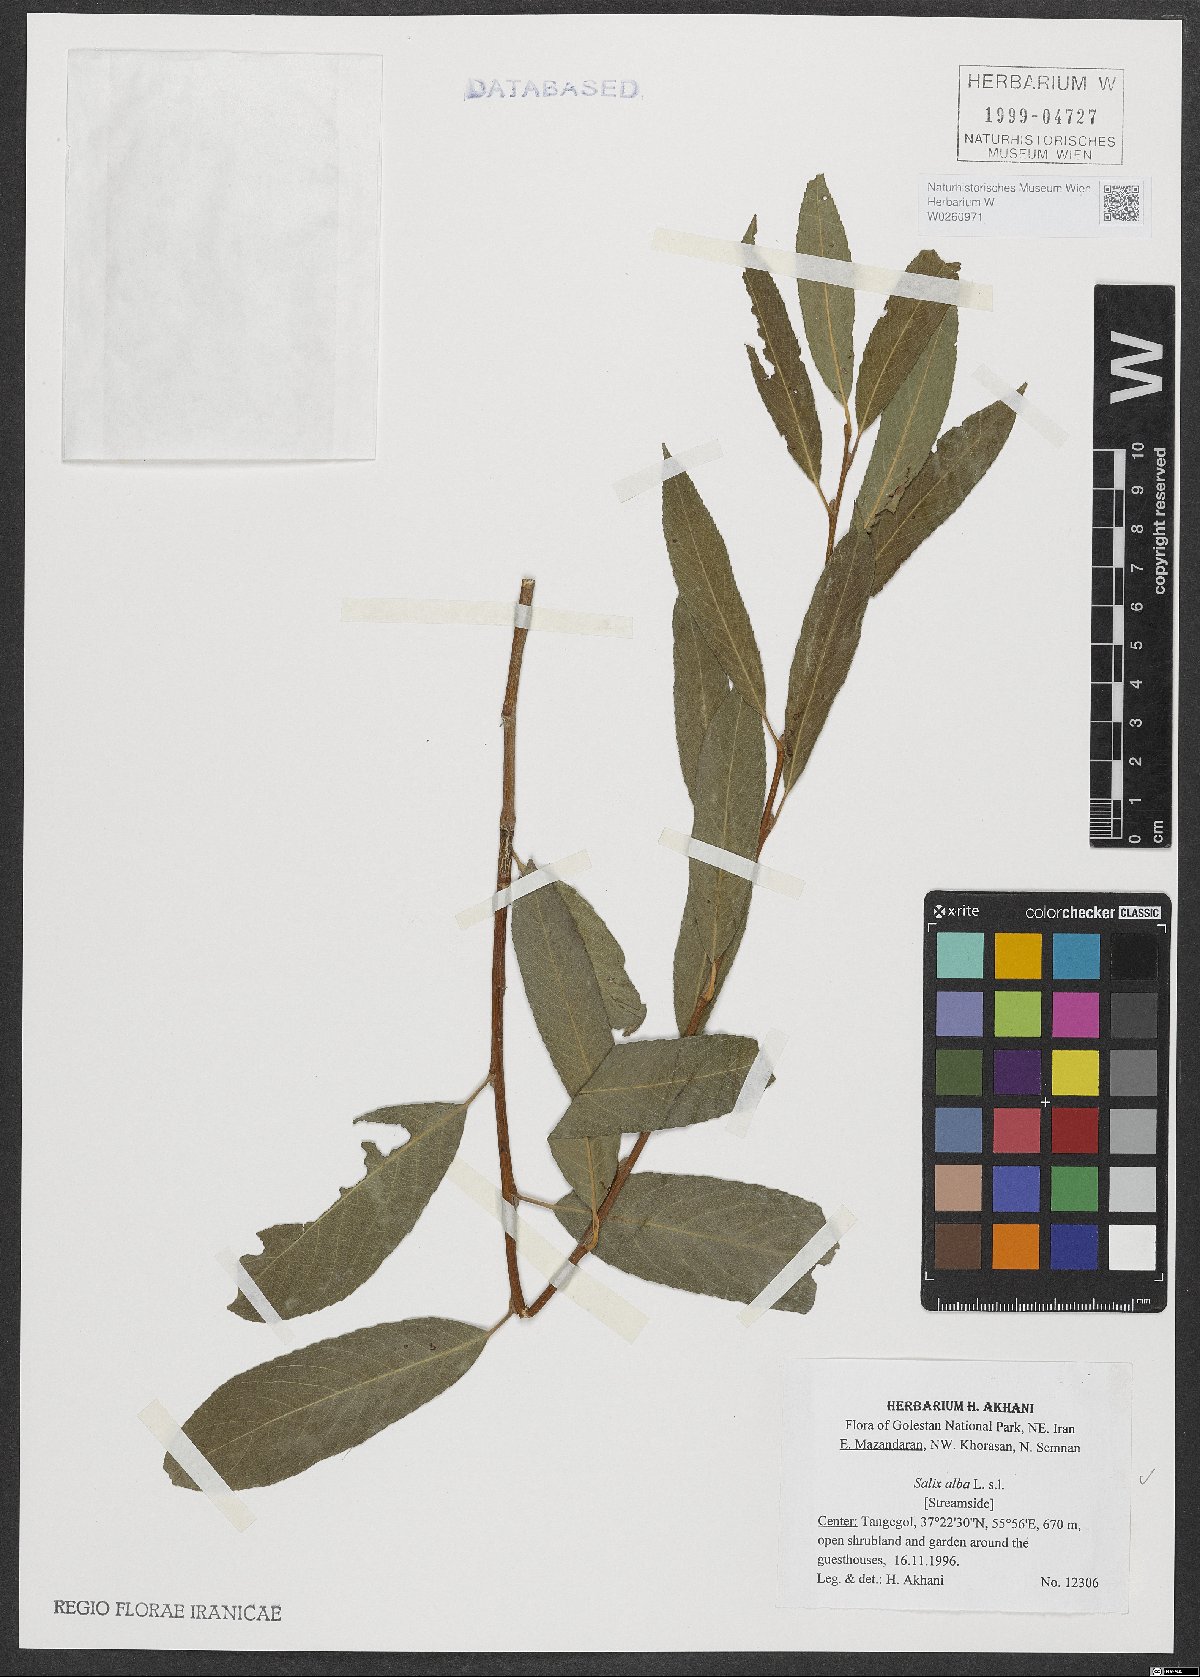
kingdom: Plantae
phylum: Tracheophyta
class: Magnoliopsida
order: Malpighiales
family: Salicaceae
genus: Salix
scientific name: Salix alba
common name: White willow
